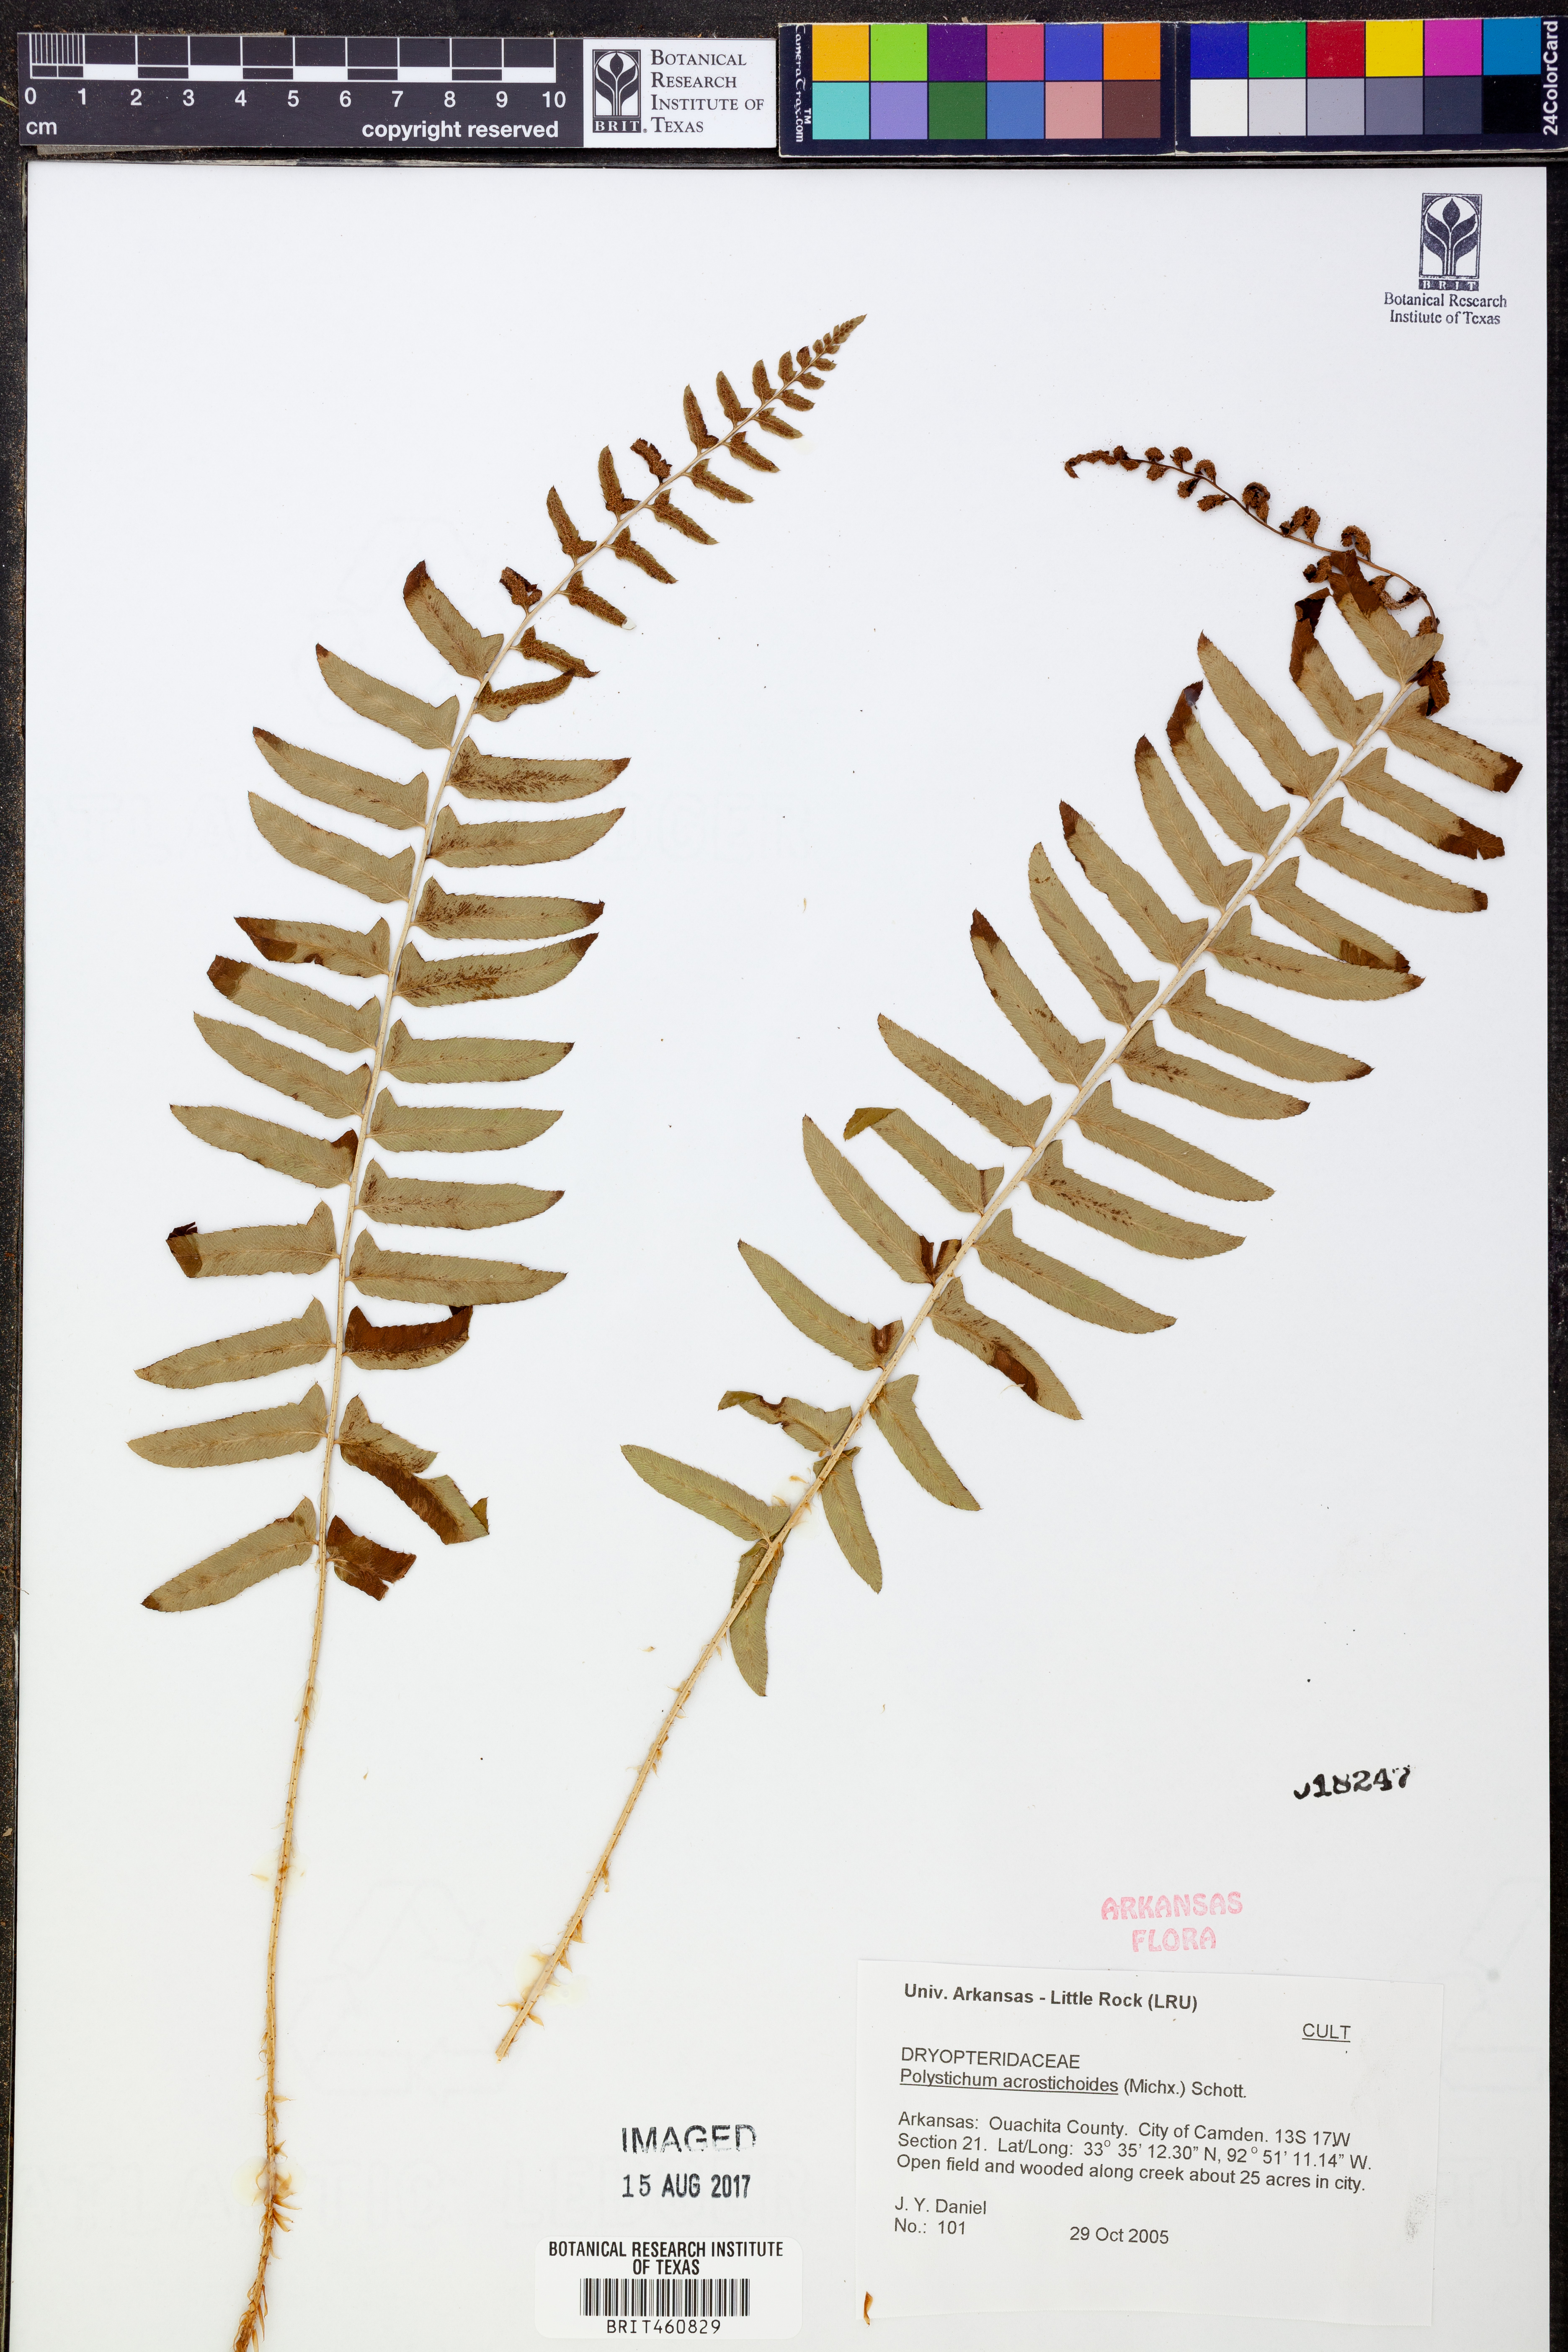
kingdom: Plantae
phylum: Tracheophyta
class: Polypodiopsida
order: Polypodiales
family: Dryopteridaceae
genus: Polystichum
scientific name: Polystichum acrostichoides
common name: Christmas fern
